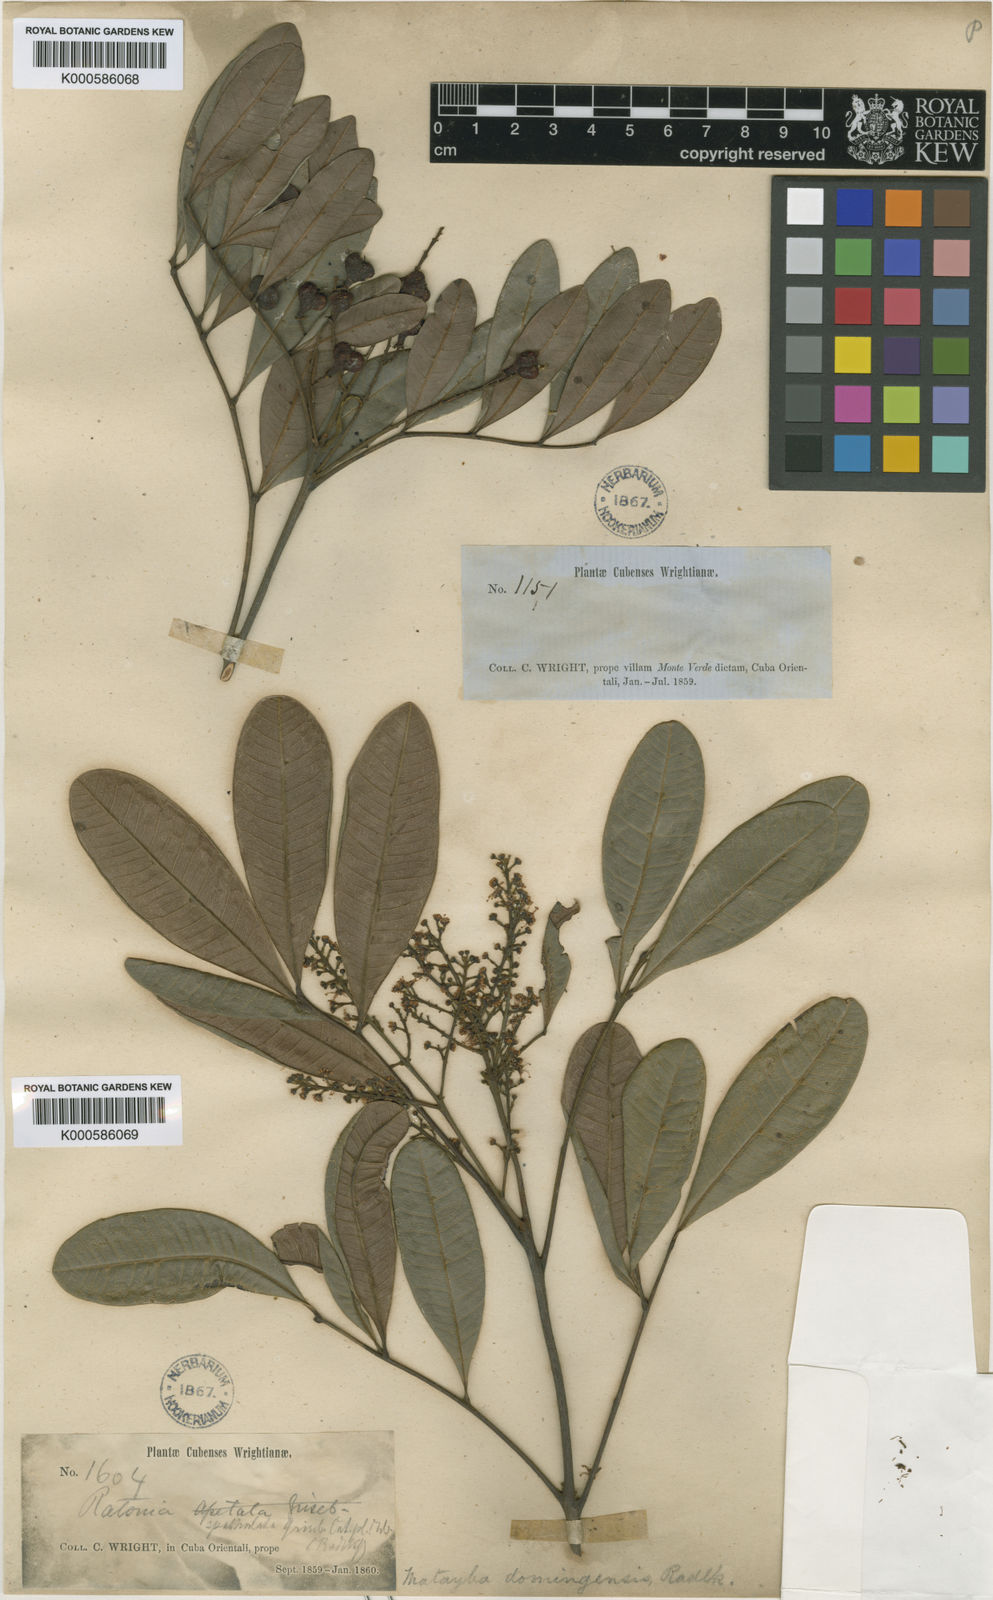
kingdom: Plantae
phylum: Tracheophyta
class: Magnoliopsida
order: Sapindales
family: Sapindaceae
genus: Matayba
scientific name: Matayba domingensis
